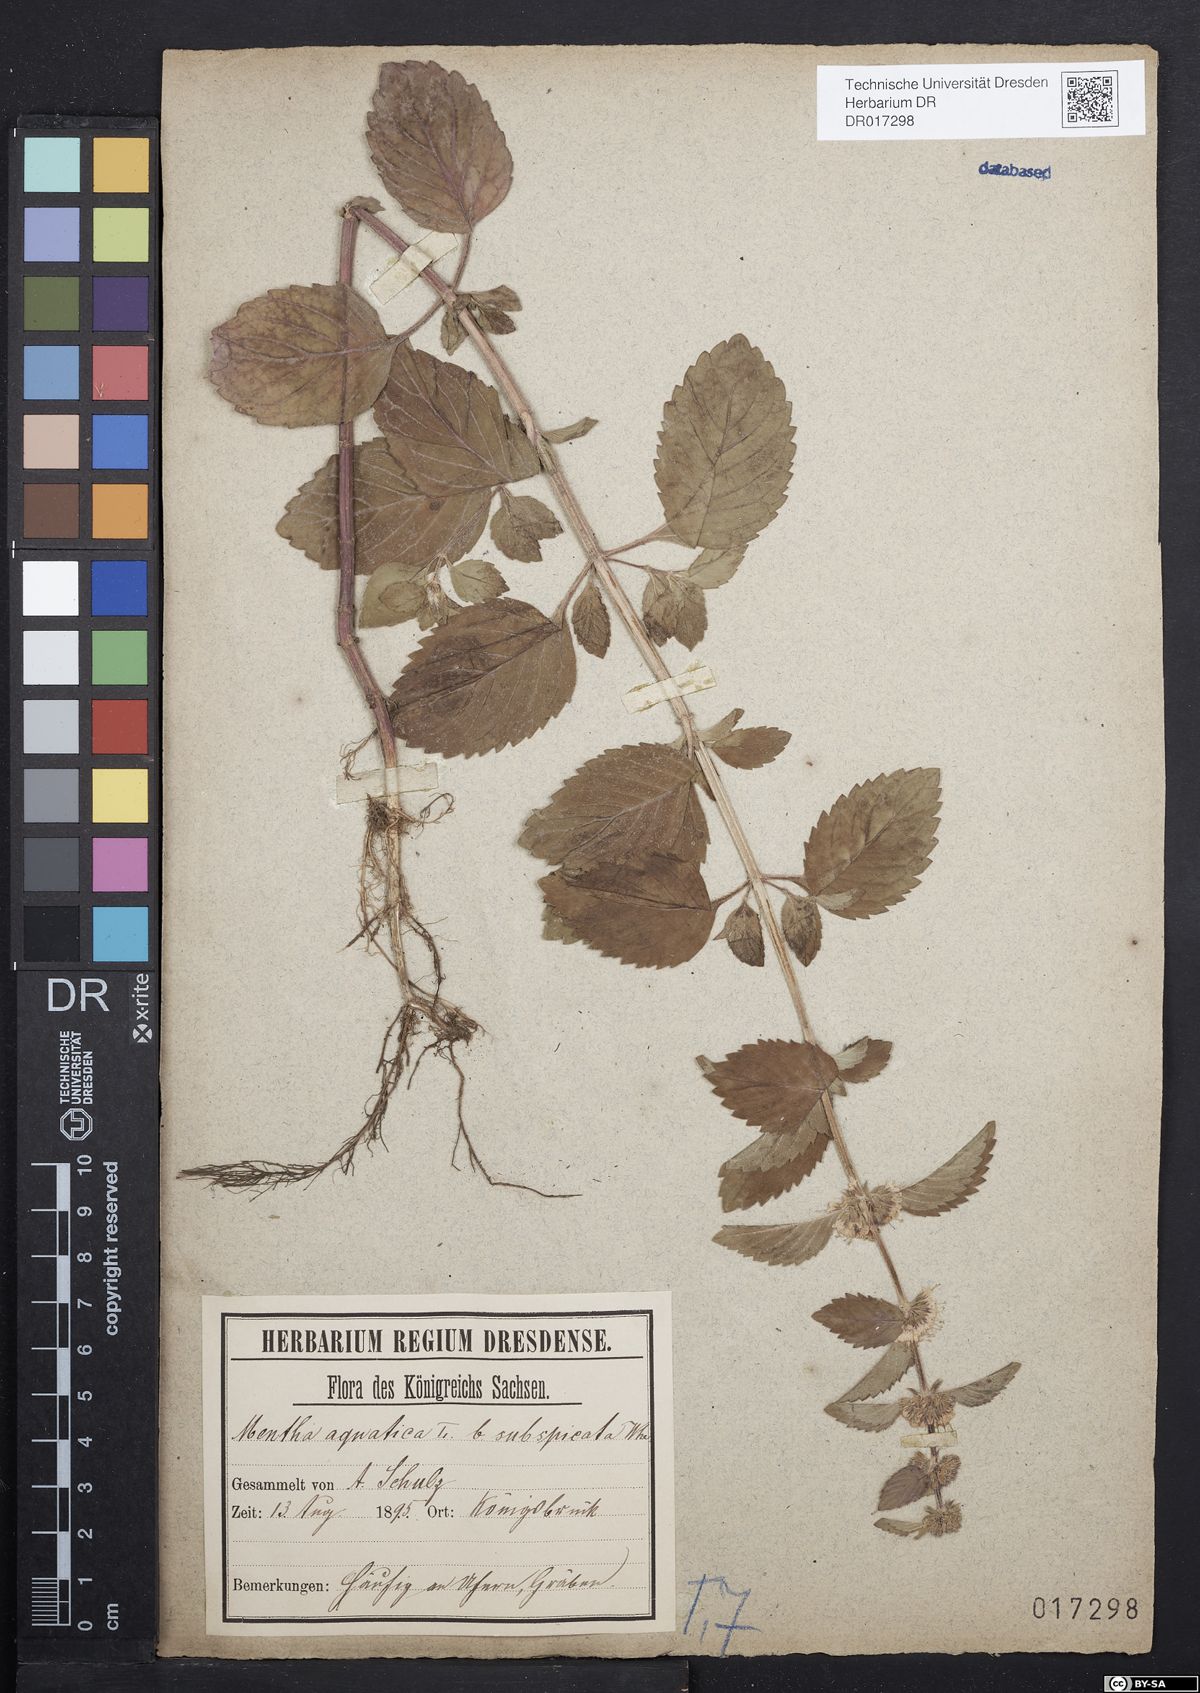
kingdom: Plantae
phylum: Tracheophyta
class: Magnoliopsida
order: Lamiales
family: Lamiaceae
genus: Mentha
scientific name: Mentha verticillata
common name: Mint
